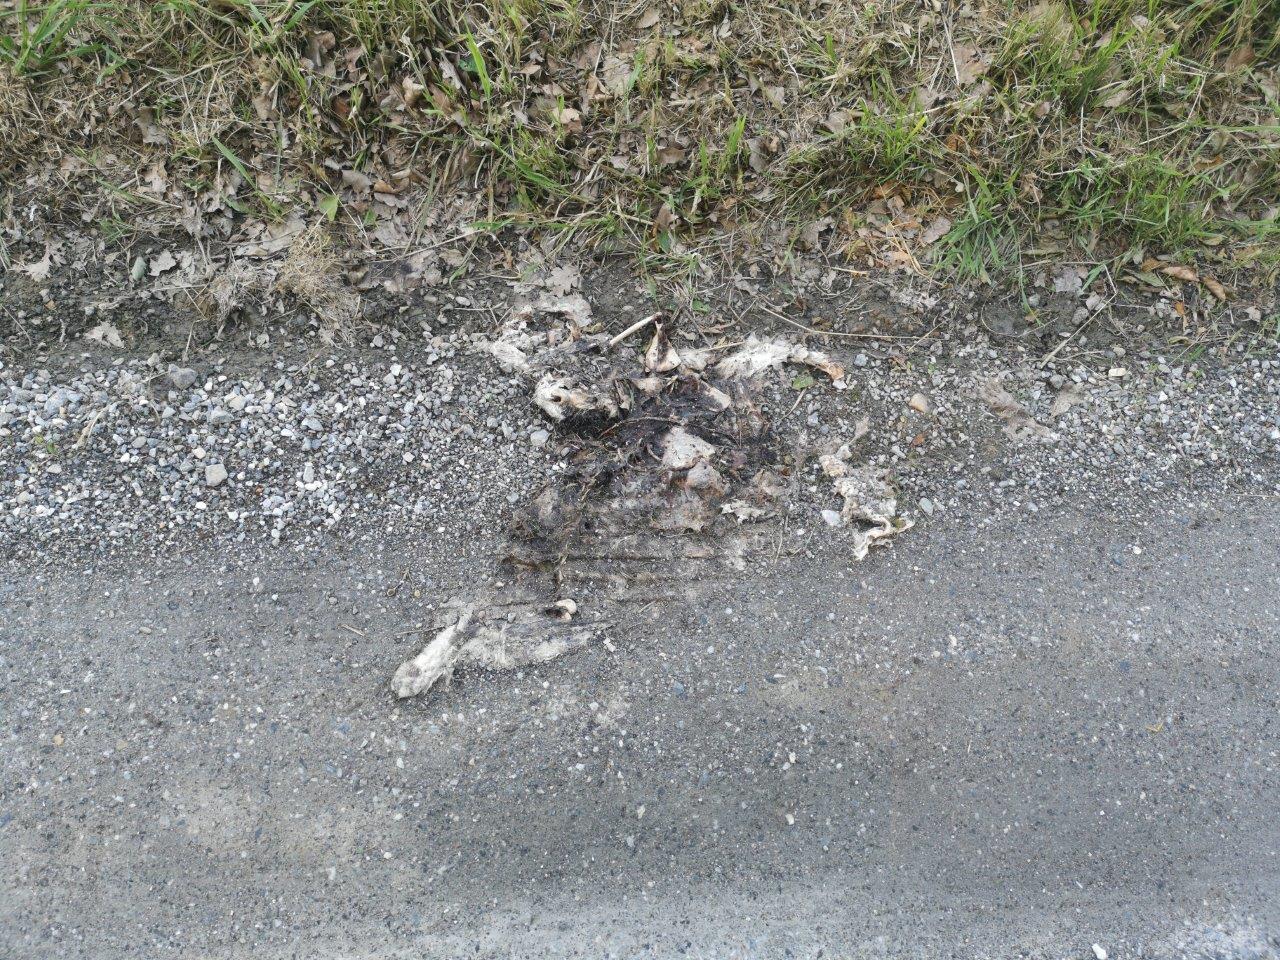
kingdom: Animalia
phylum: Chordata
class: Mammalia
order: Lagomorpha
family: Leporidae
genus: Lepus
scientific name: Lepus europaeus
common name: European hare
